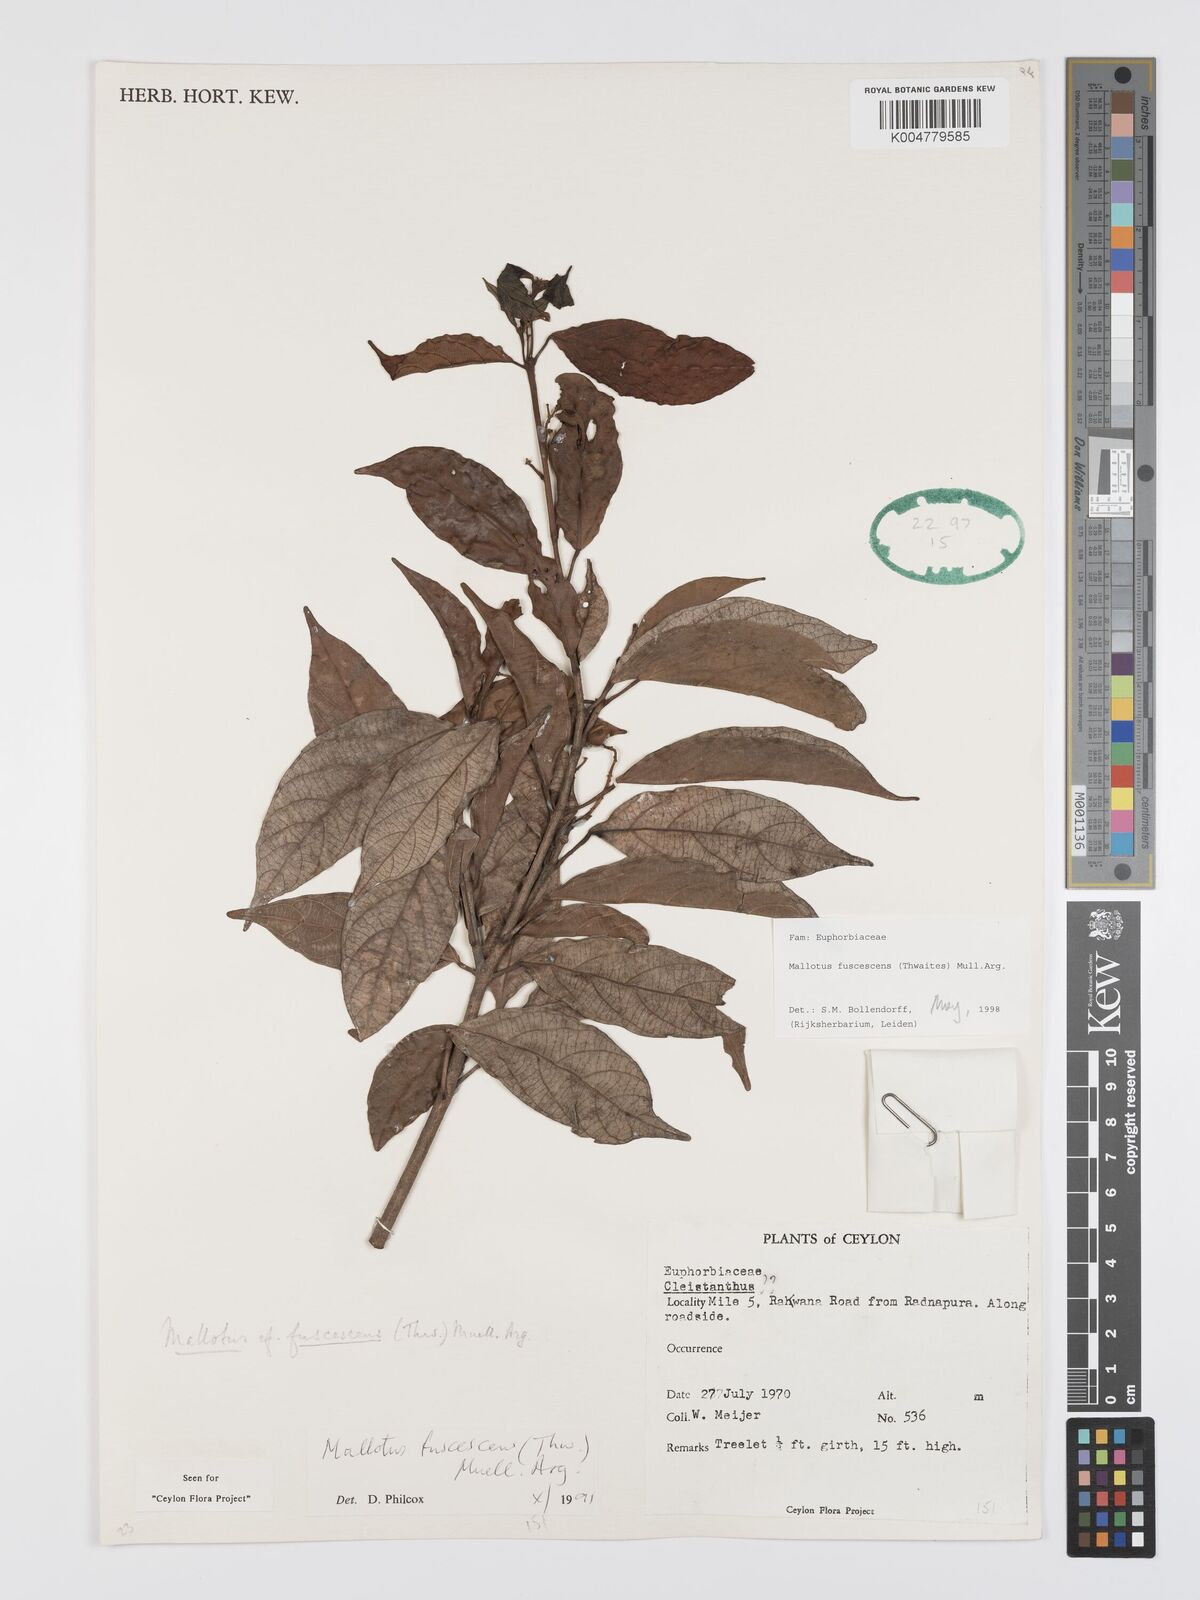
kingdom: Plantae
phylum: Tracheophyta
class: Magnoliopsida
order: Malpighiales
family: Euphorbiaceae
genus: Mallotus
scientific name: Mallotus fuscescens
